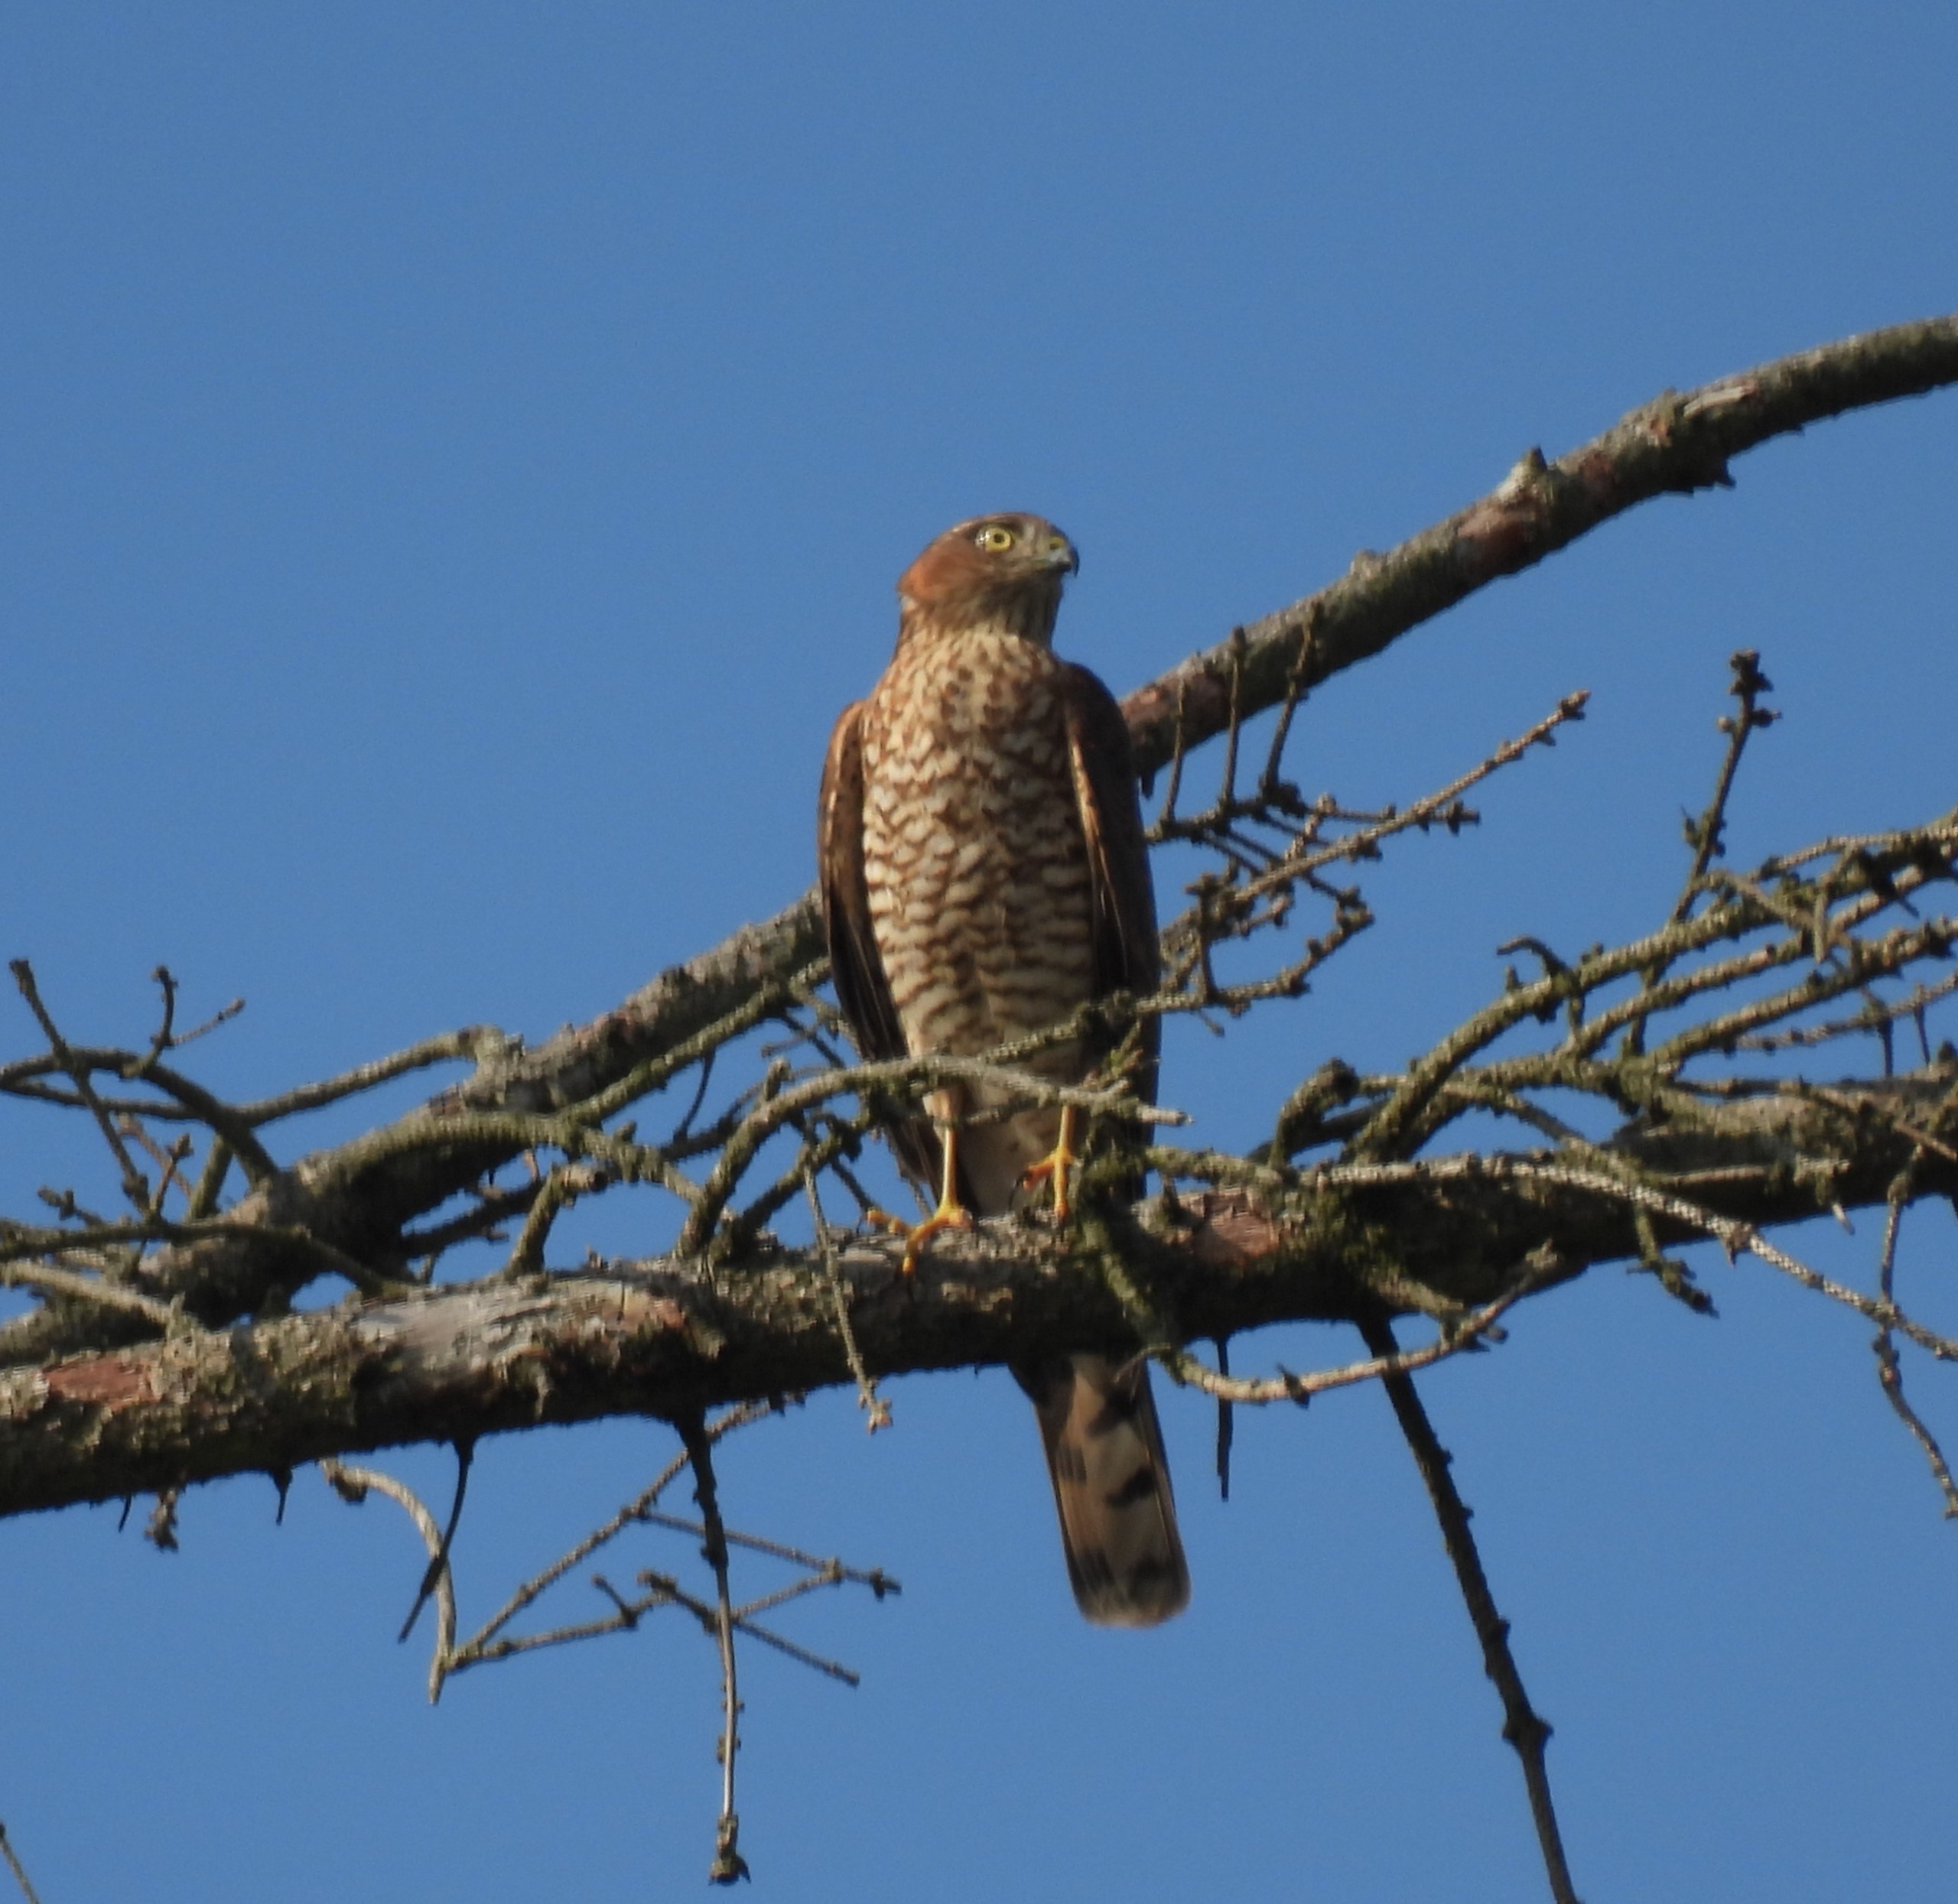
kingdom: Animalia
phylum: Chordata
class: Aves
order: Accipitriformes
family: Accipitridae
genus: Accipiter
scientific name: Accipiter nisus
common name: Spurvehøg
